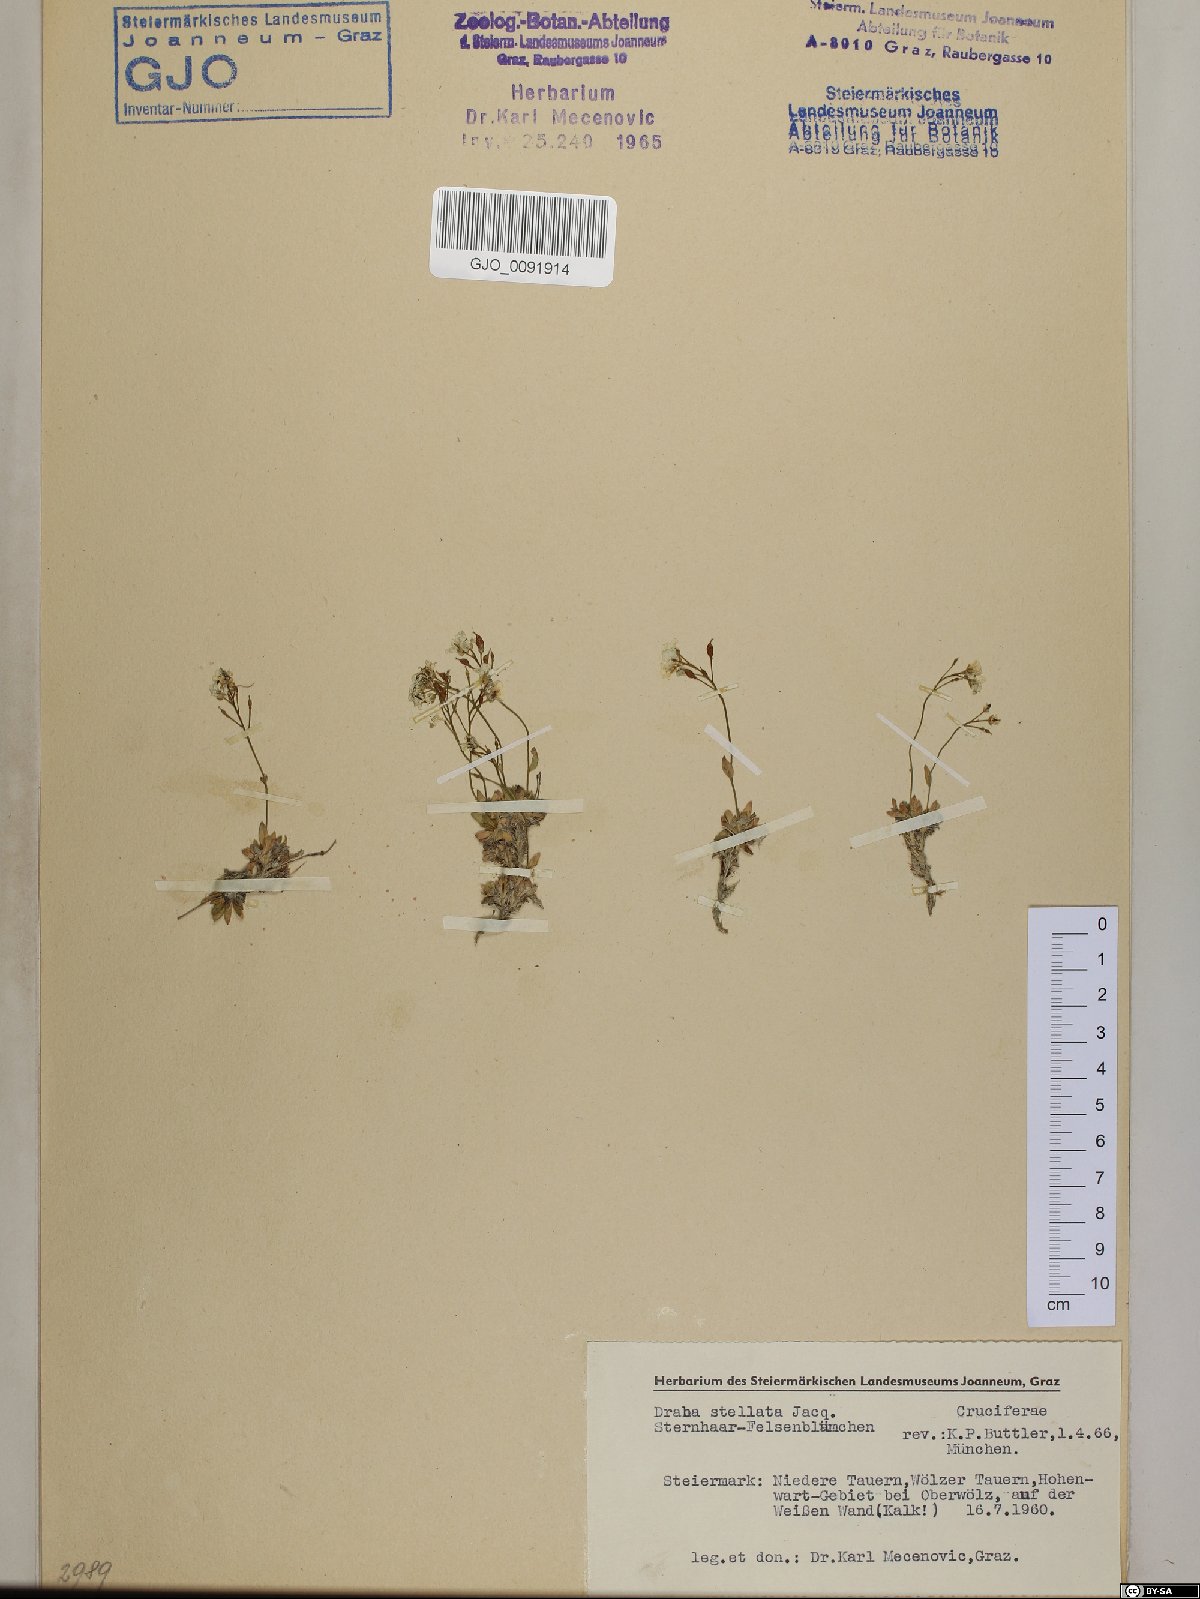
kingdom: Plantae
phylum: Tracheophyta
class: Magnoliopsida
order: Brassicales
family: Brassicaceae
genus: Draba
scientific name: Draba stellata
